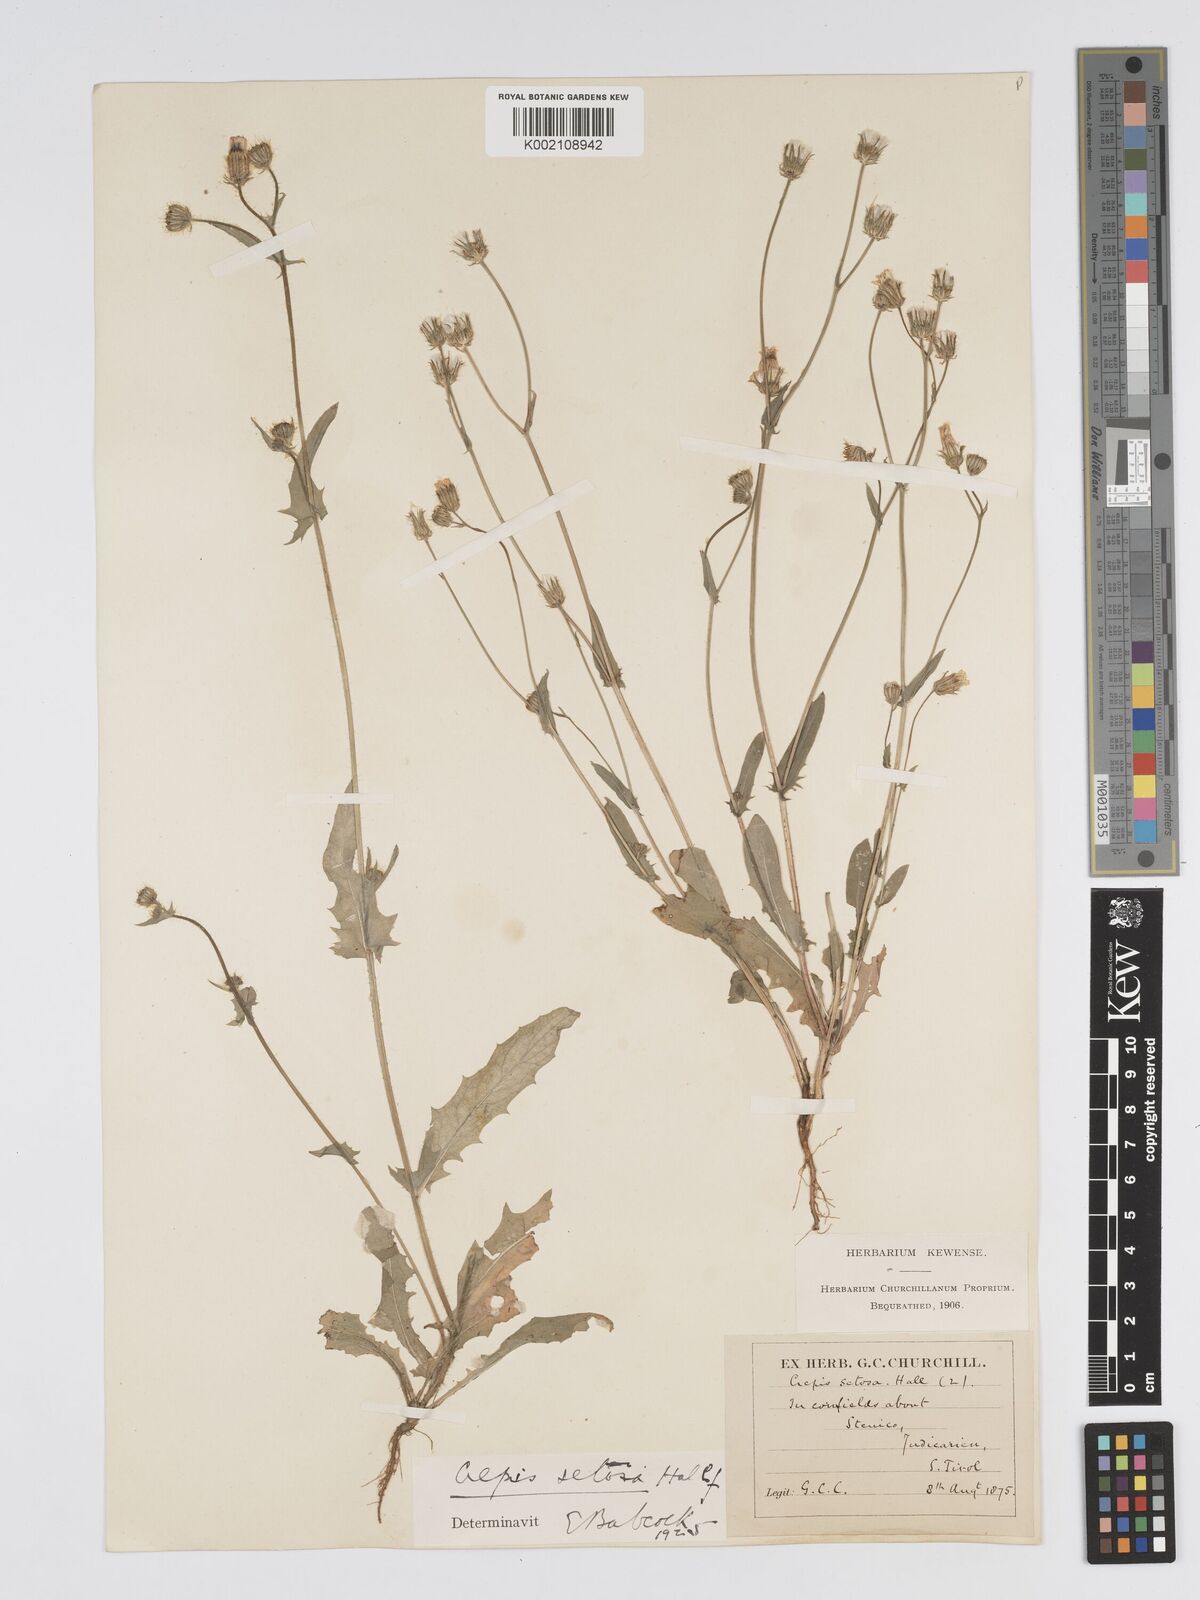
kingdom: Plantae
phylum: Tracheophyta
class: Magnoliopsida
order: Asterales
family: Asteraceae
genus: Crepis
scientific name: Crepis setosa
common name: Bristly hawk's-beard
